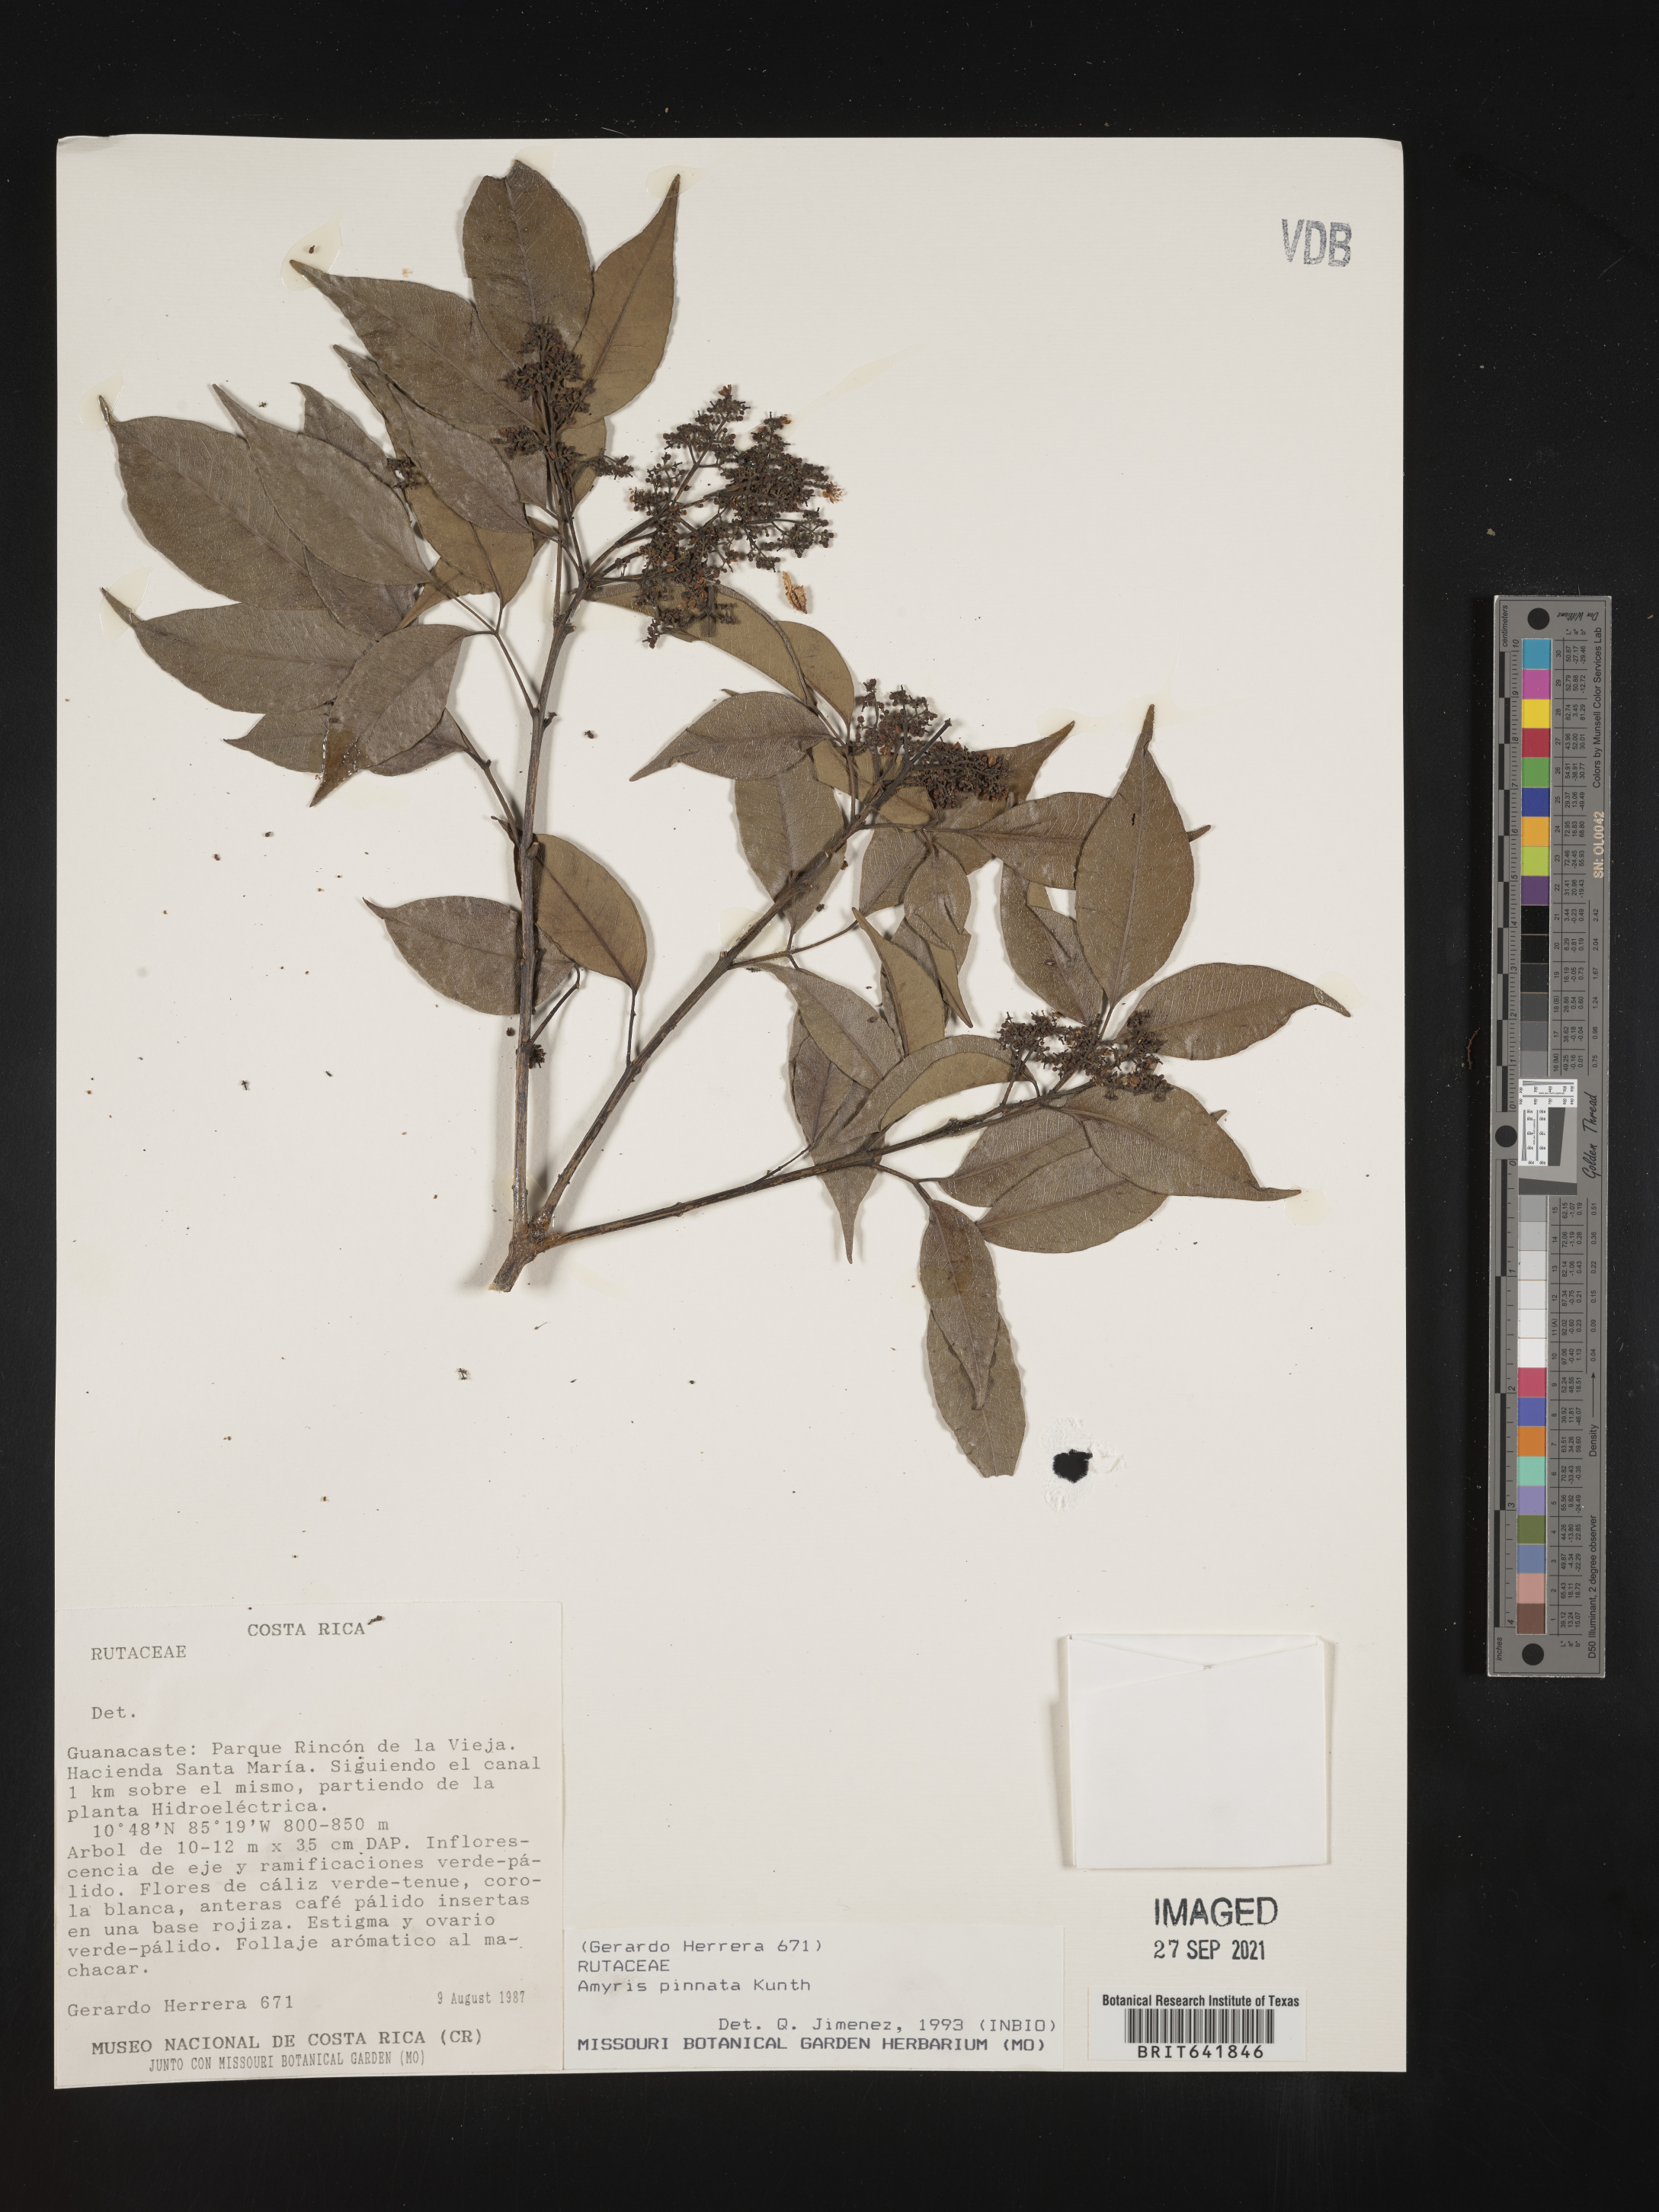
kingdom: Plantae
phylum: Tracheophyta
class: Magnoliopsida
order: Sapindales
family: Rutaceae
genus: Amyris
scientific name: Amyris
